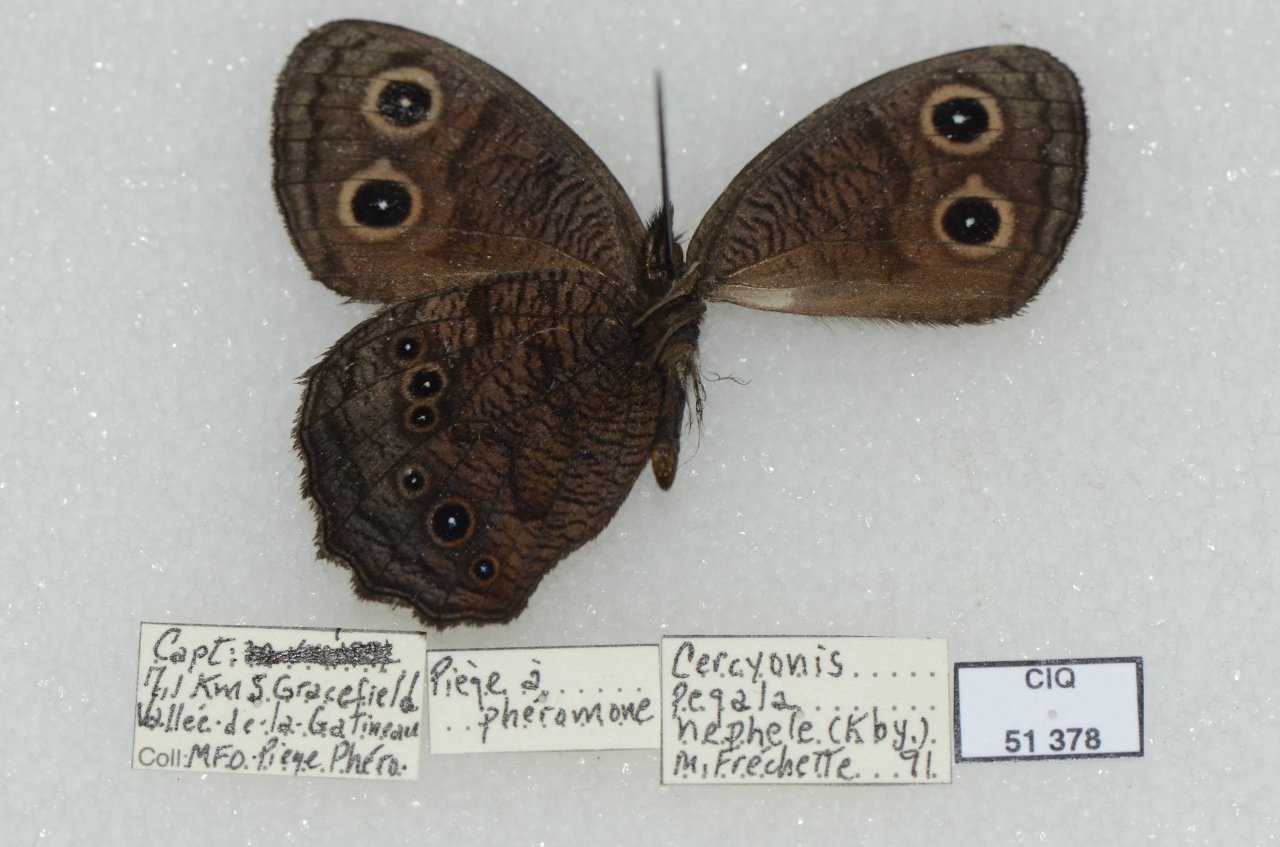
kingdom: Animalia
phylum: Arthropoda
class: Insecta
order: Lepidoptera
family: Nymphalidae
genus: Cercyonis
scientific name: Cercyonis pegala
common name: Common Wood-Nymph
